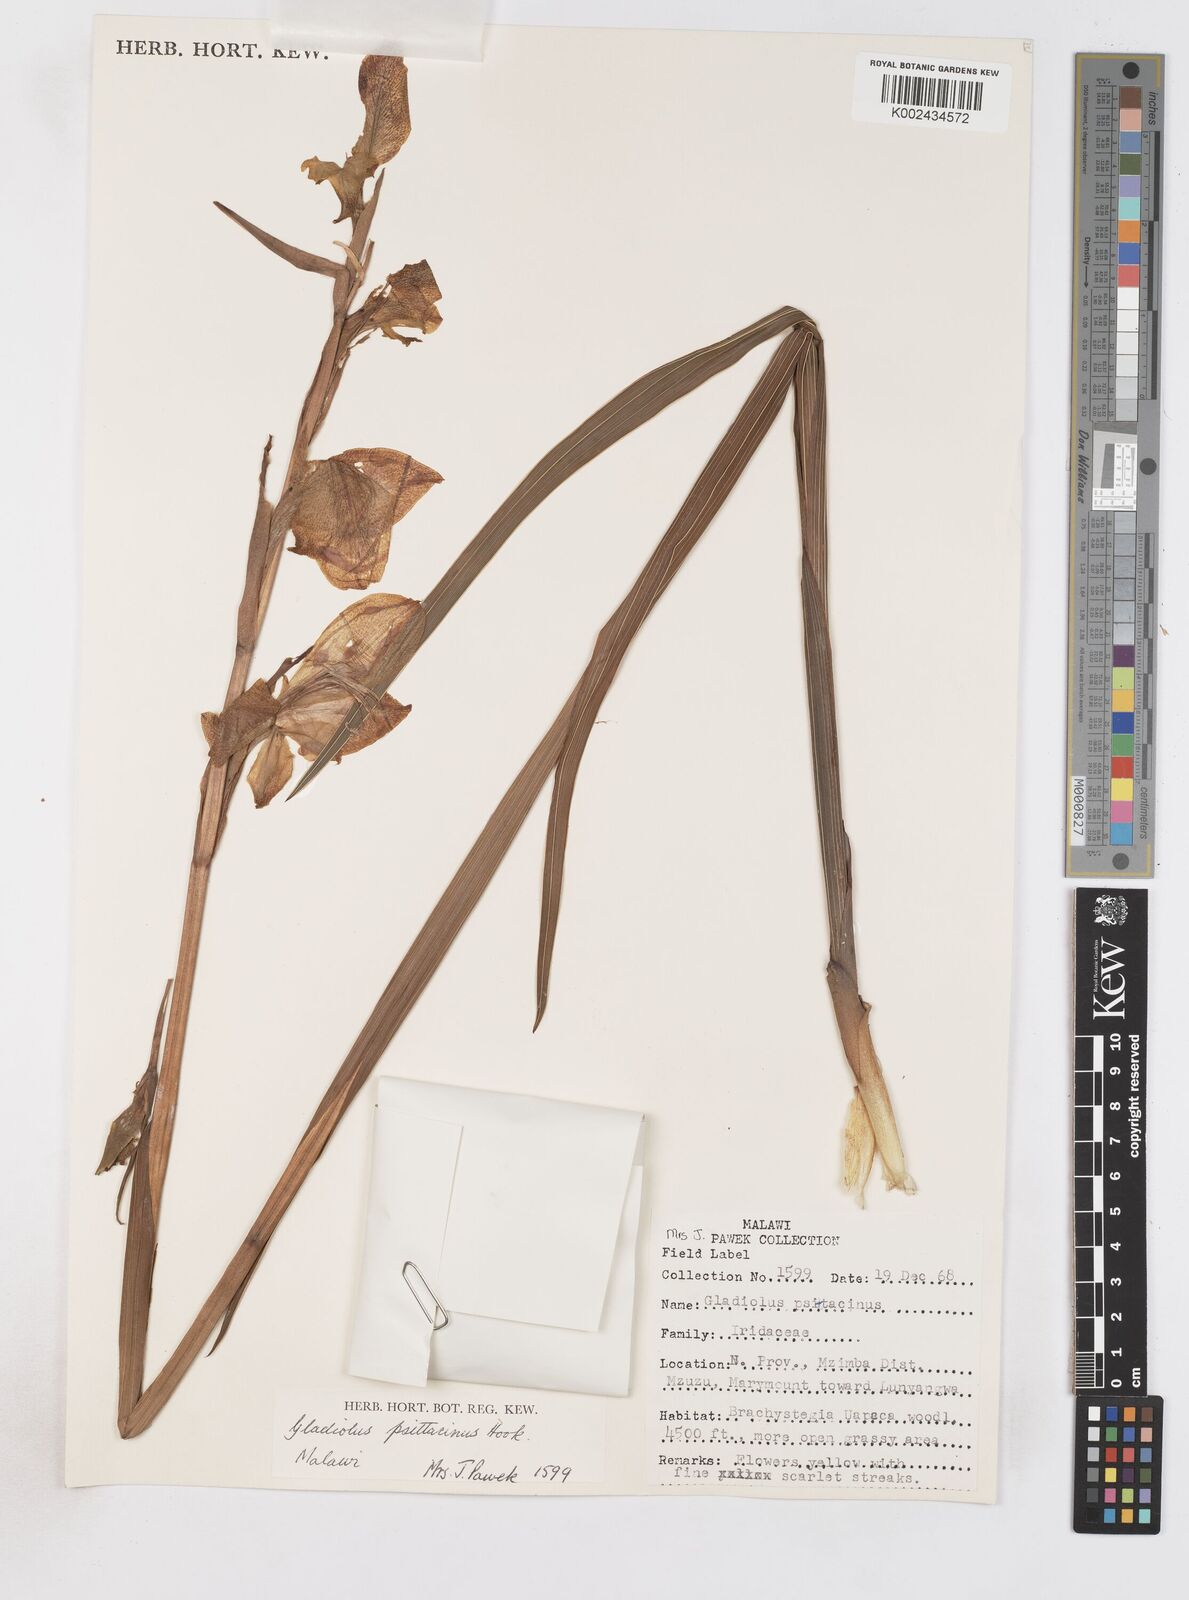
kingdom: Plantae
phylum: Tracheophyta
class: Liliopsida
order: Asparagales
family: Iridaceae
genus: Gladiolus
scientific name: Gladiolus dalenii
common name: Cornflag
